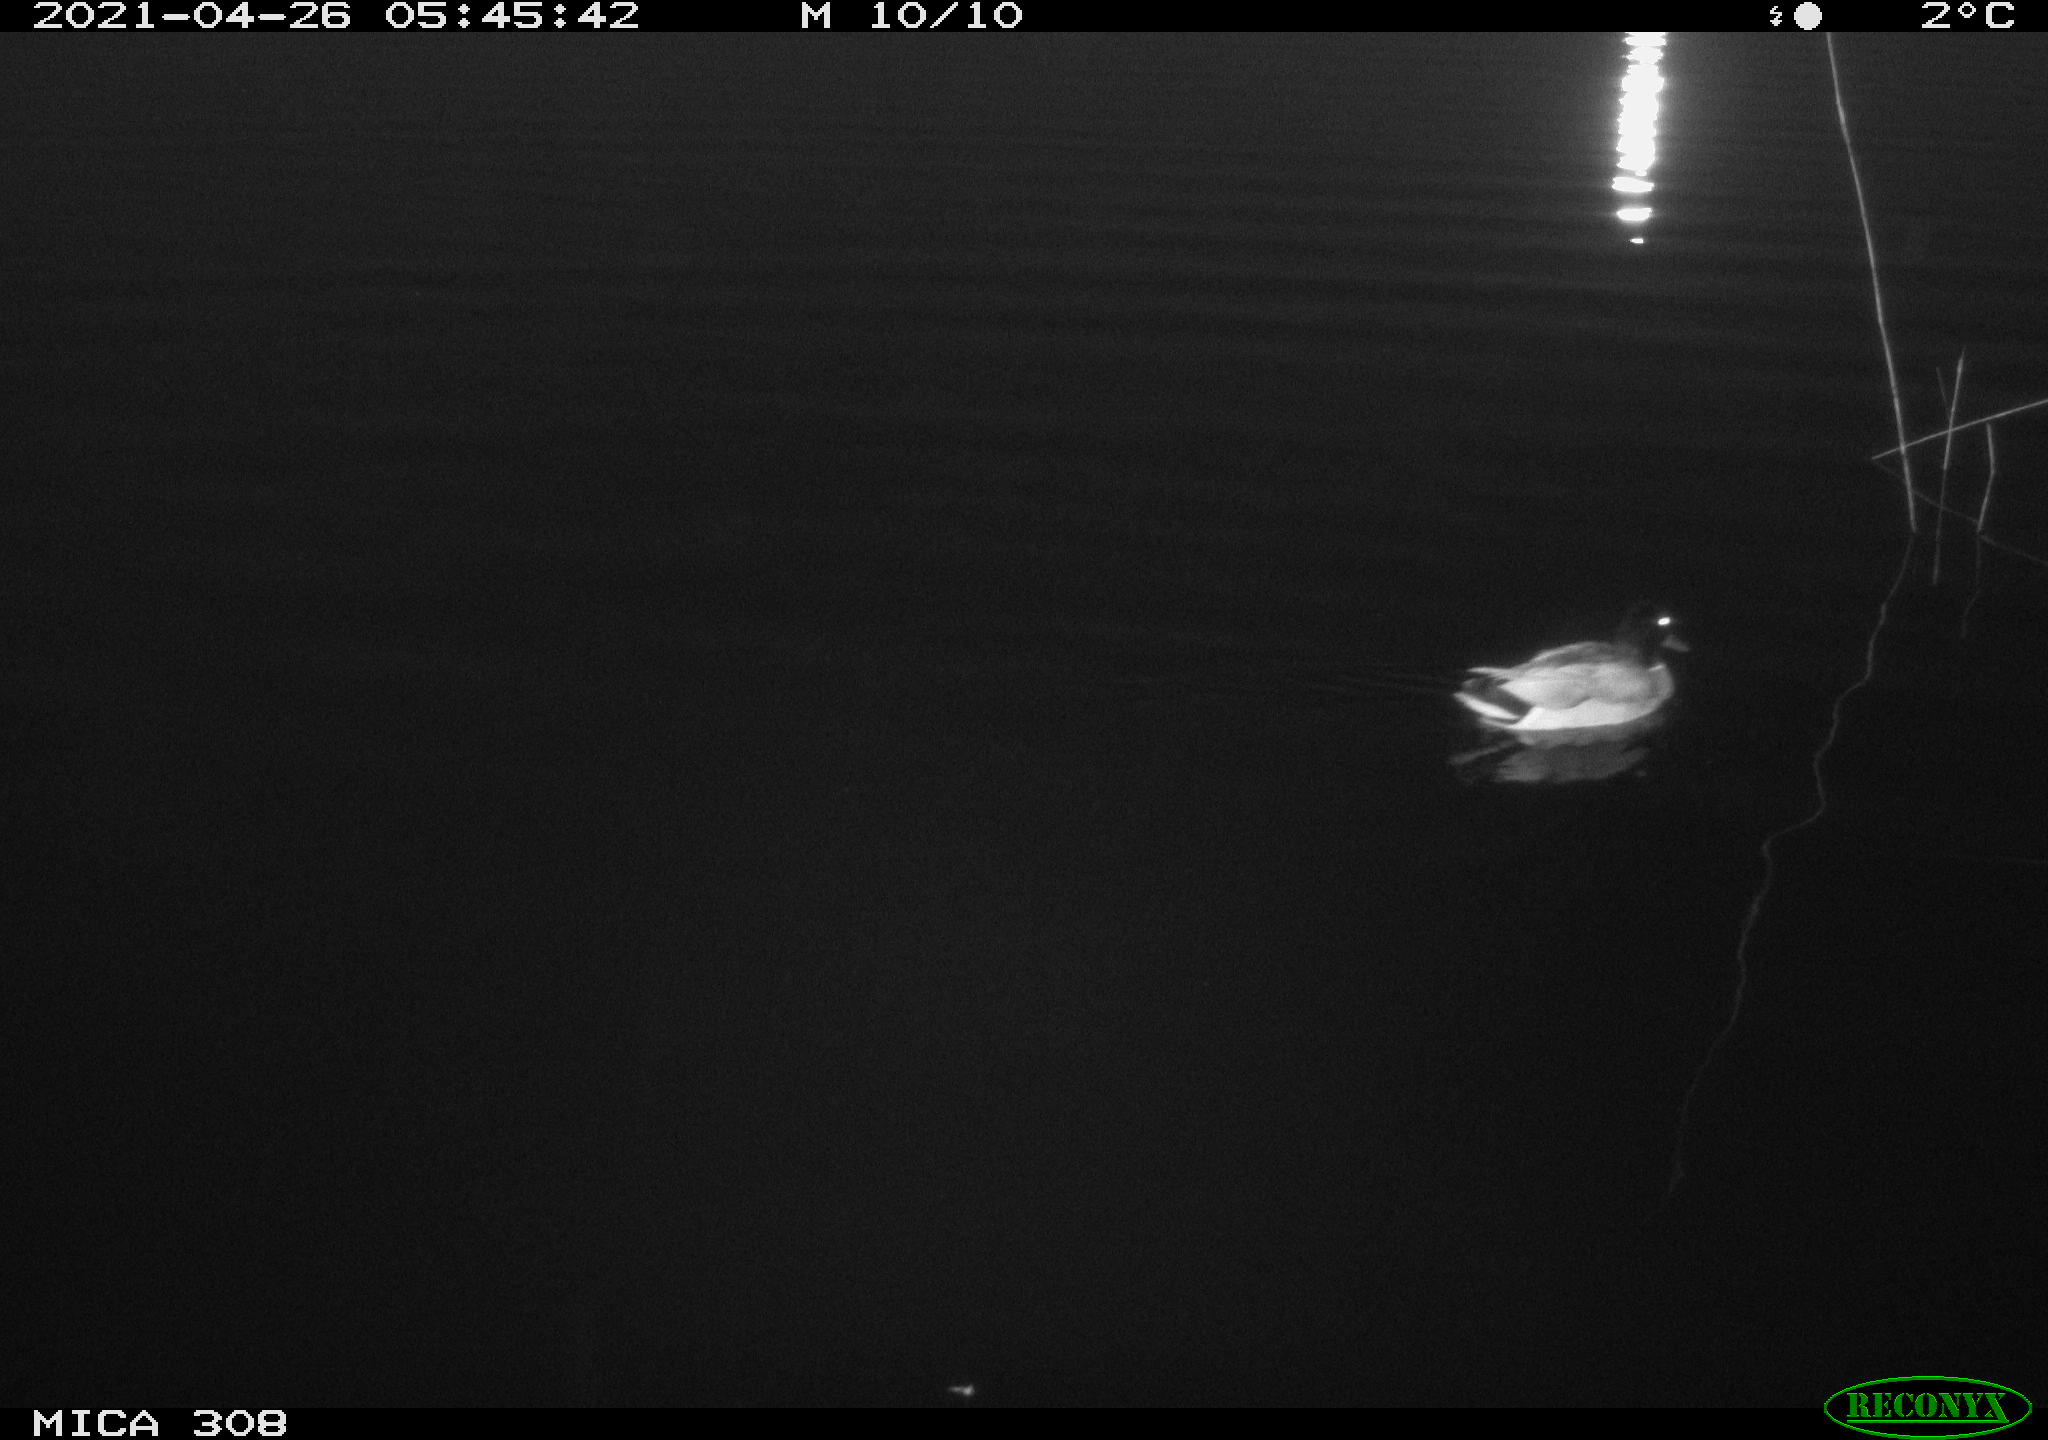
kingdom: Animalia
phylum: Chordata
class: Aves
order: Anseriformes
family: Anatidae
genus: Anas
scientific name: Anas platyrhynchos
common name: Mallard
